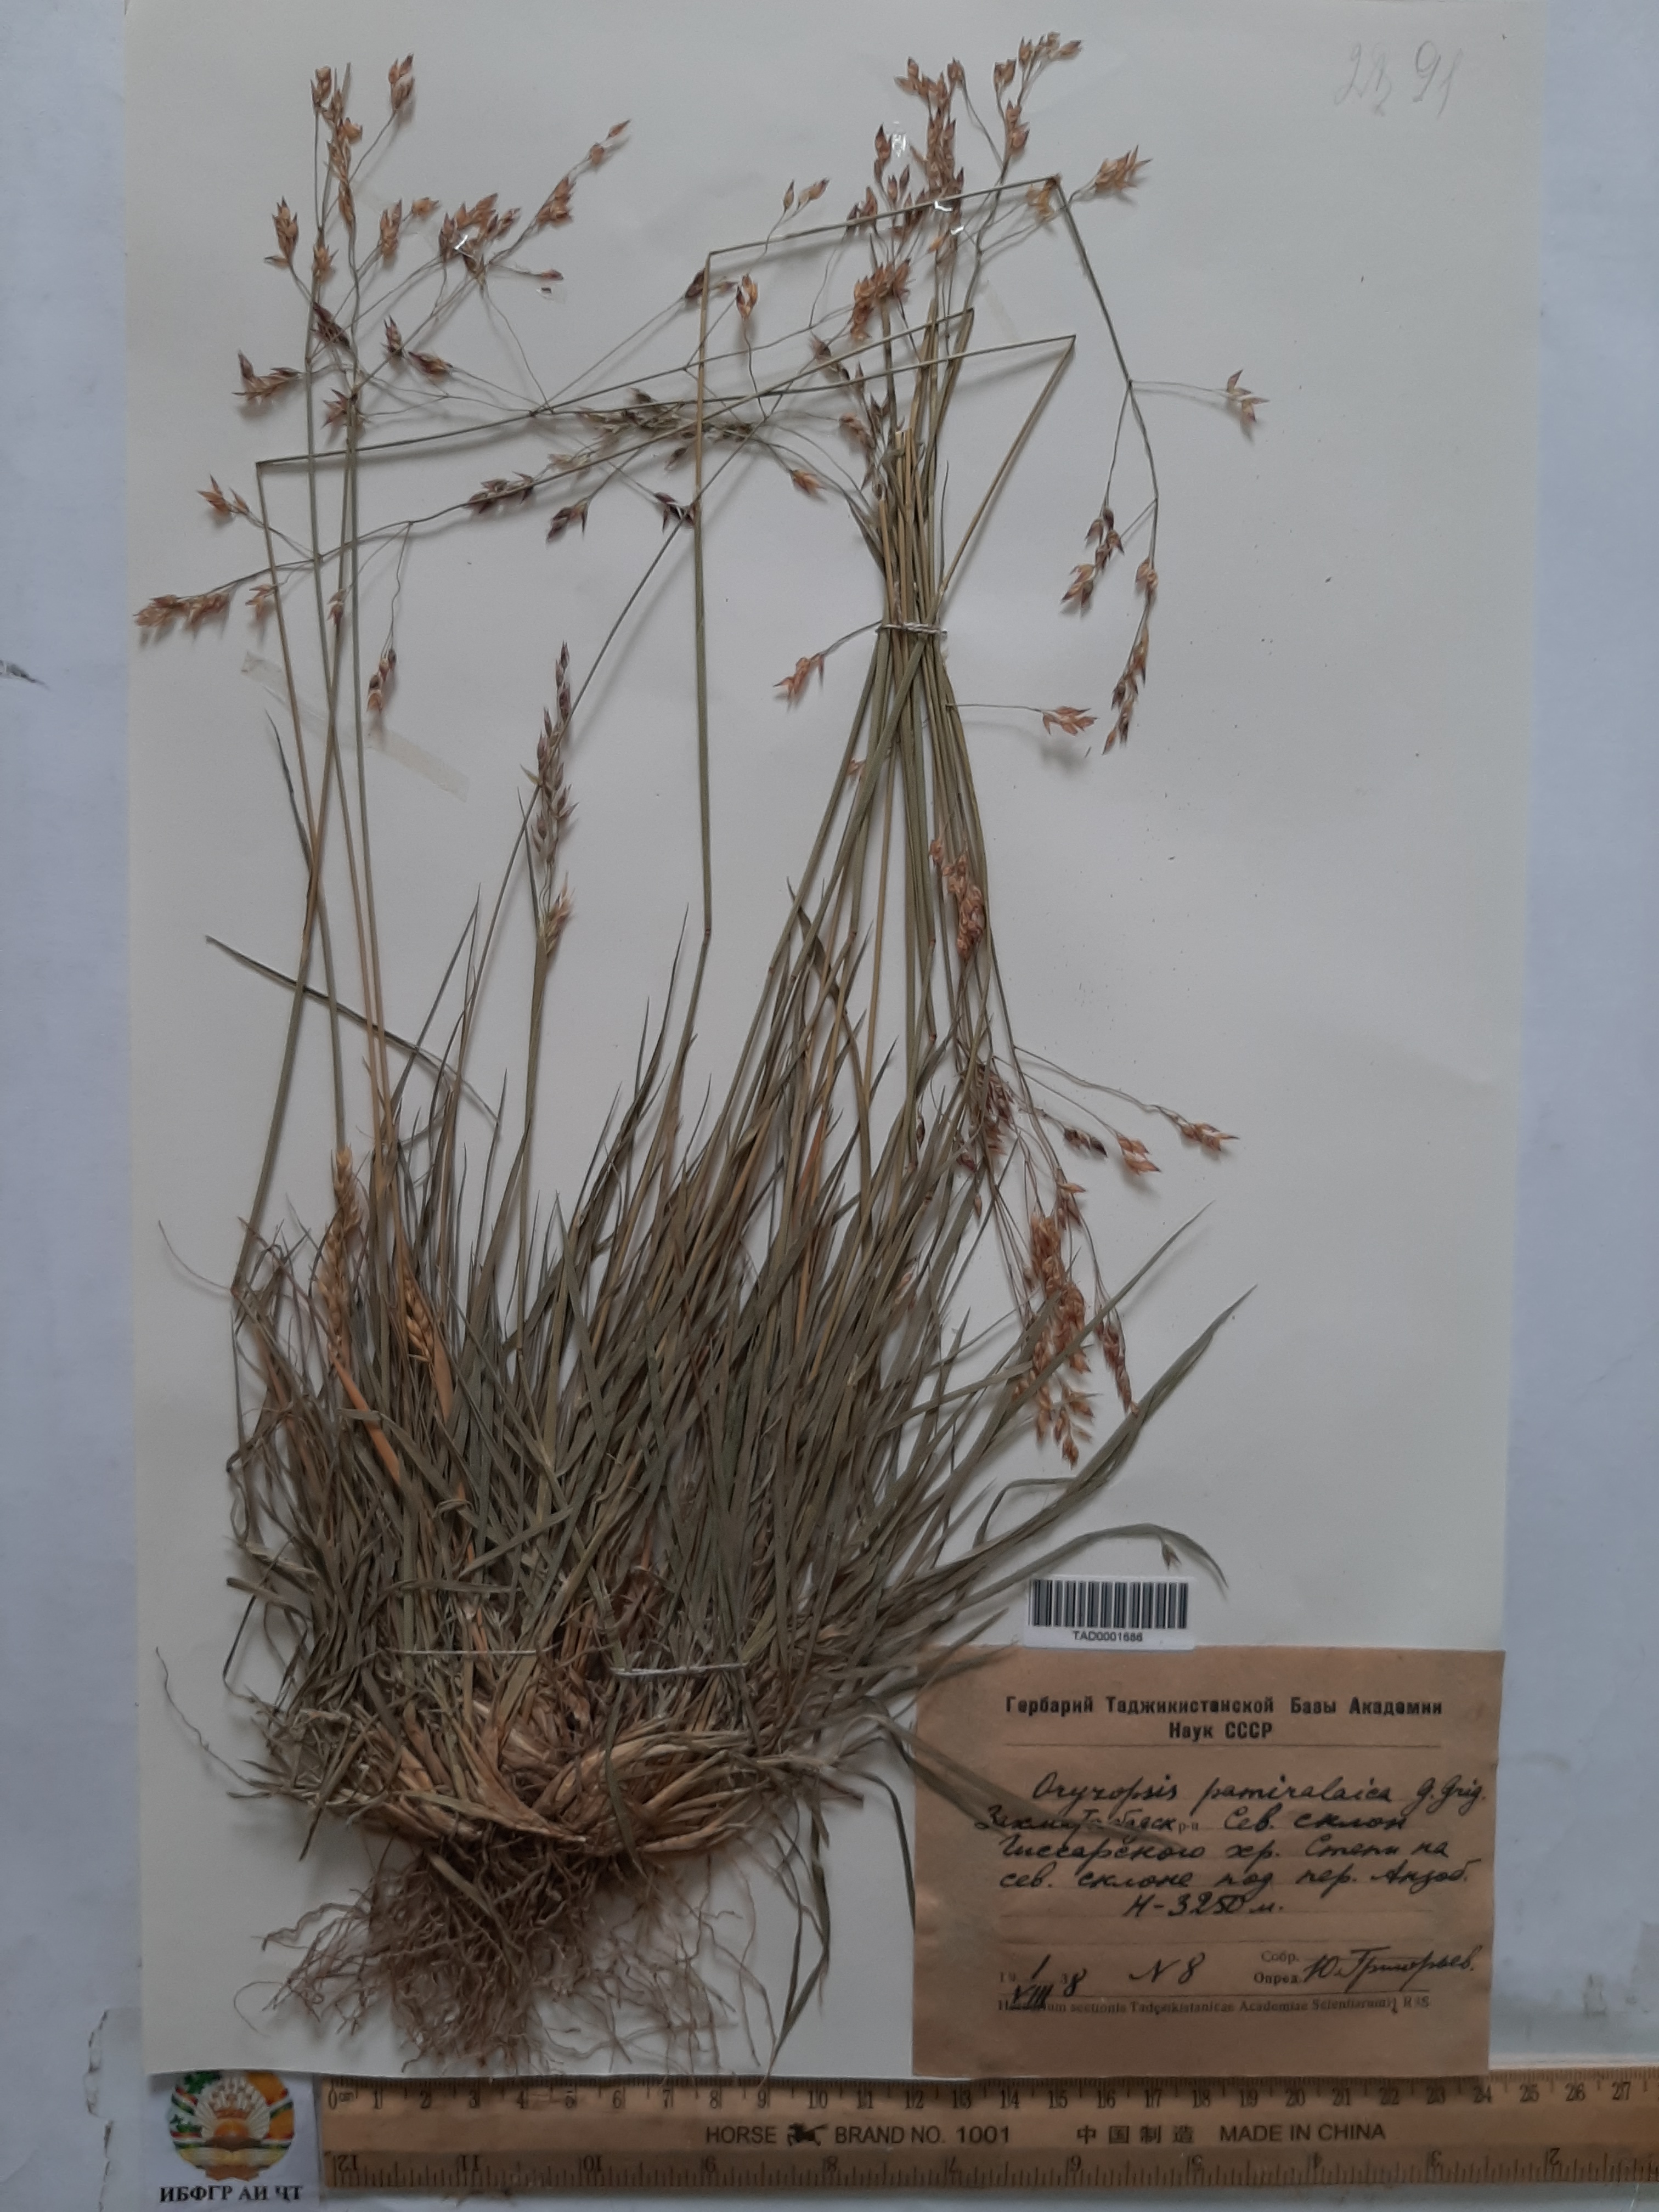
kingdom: Plantae
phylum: Tracheophyta
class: Liliopsida
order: Poales
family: Poaceae
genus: Piptatherum
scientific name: Piptatherum pamiralaicum
